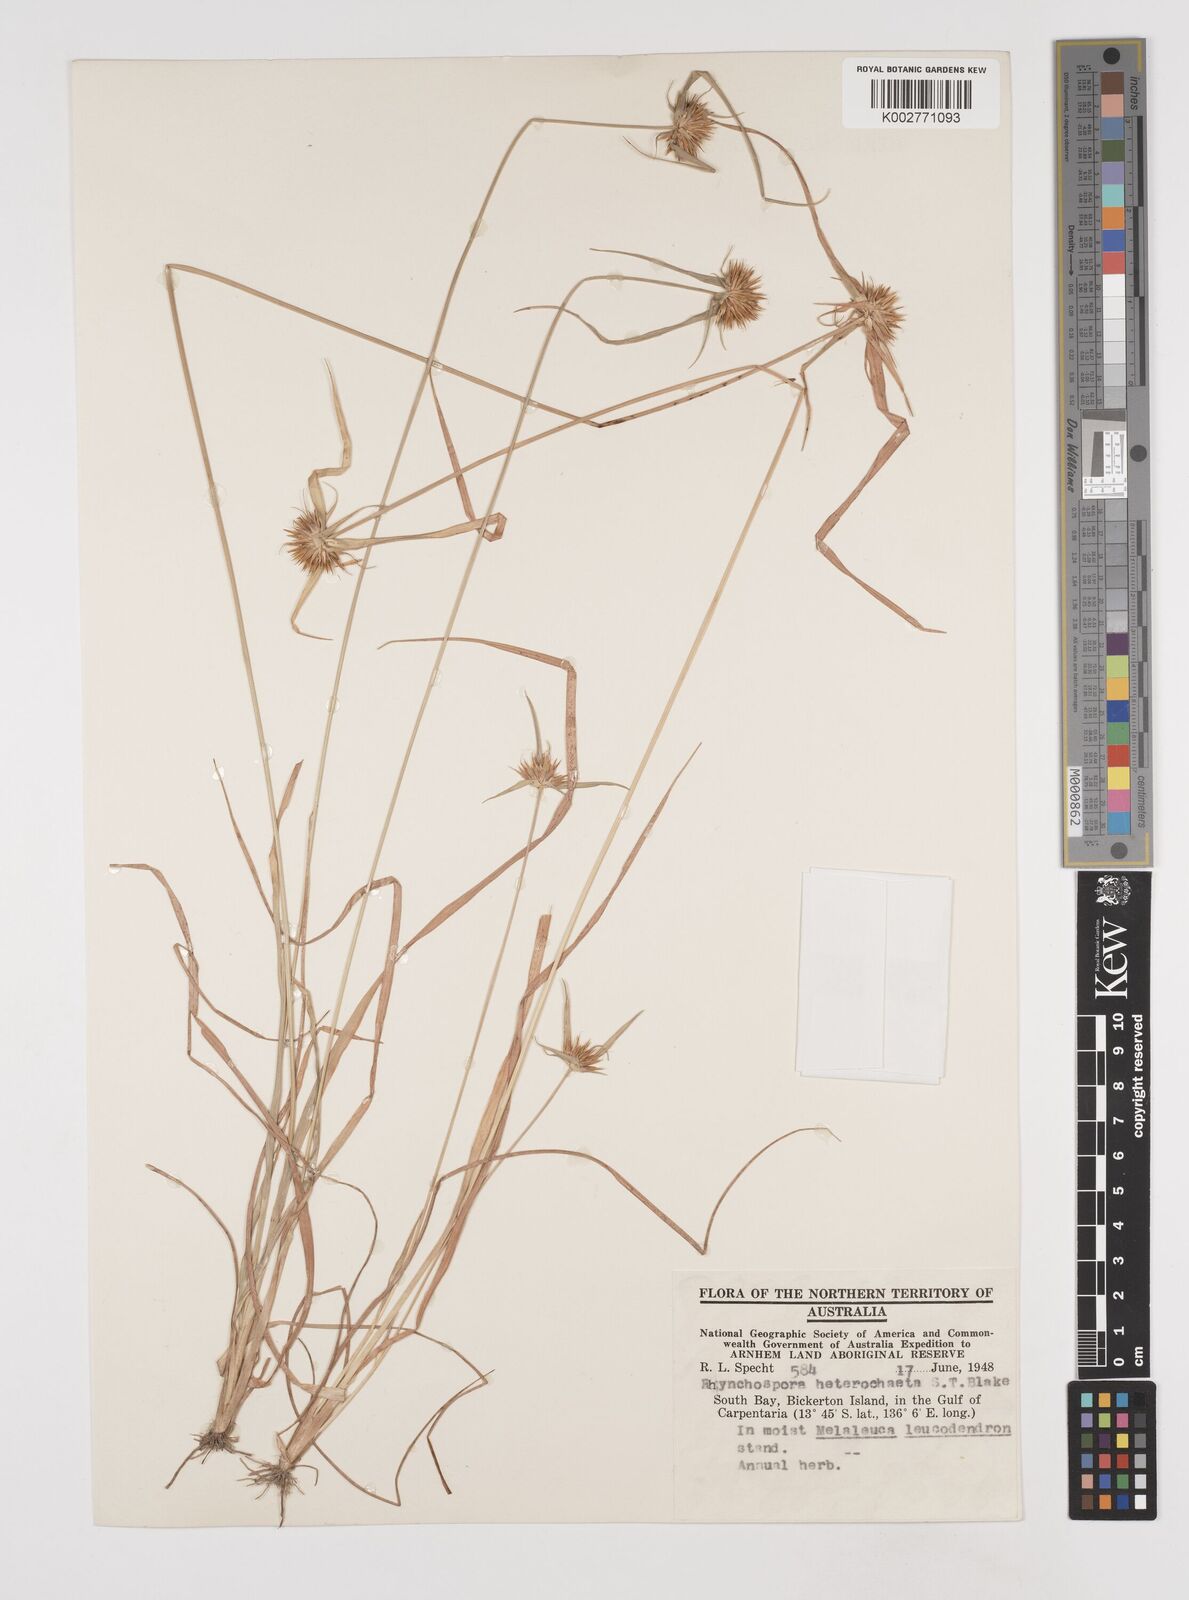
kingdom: Plantae
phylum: Tracheophyta
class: Liliopsida
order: Poales
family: Cyperaceae
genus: Rhynchospora
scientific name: Rhynchospora heterochaeta
